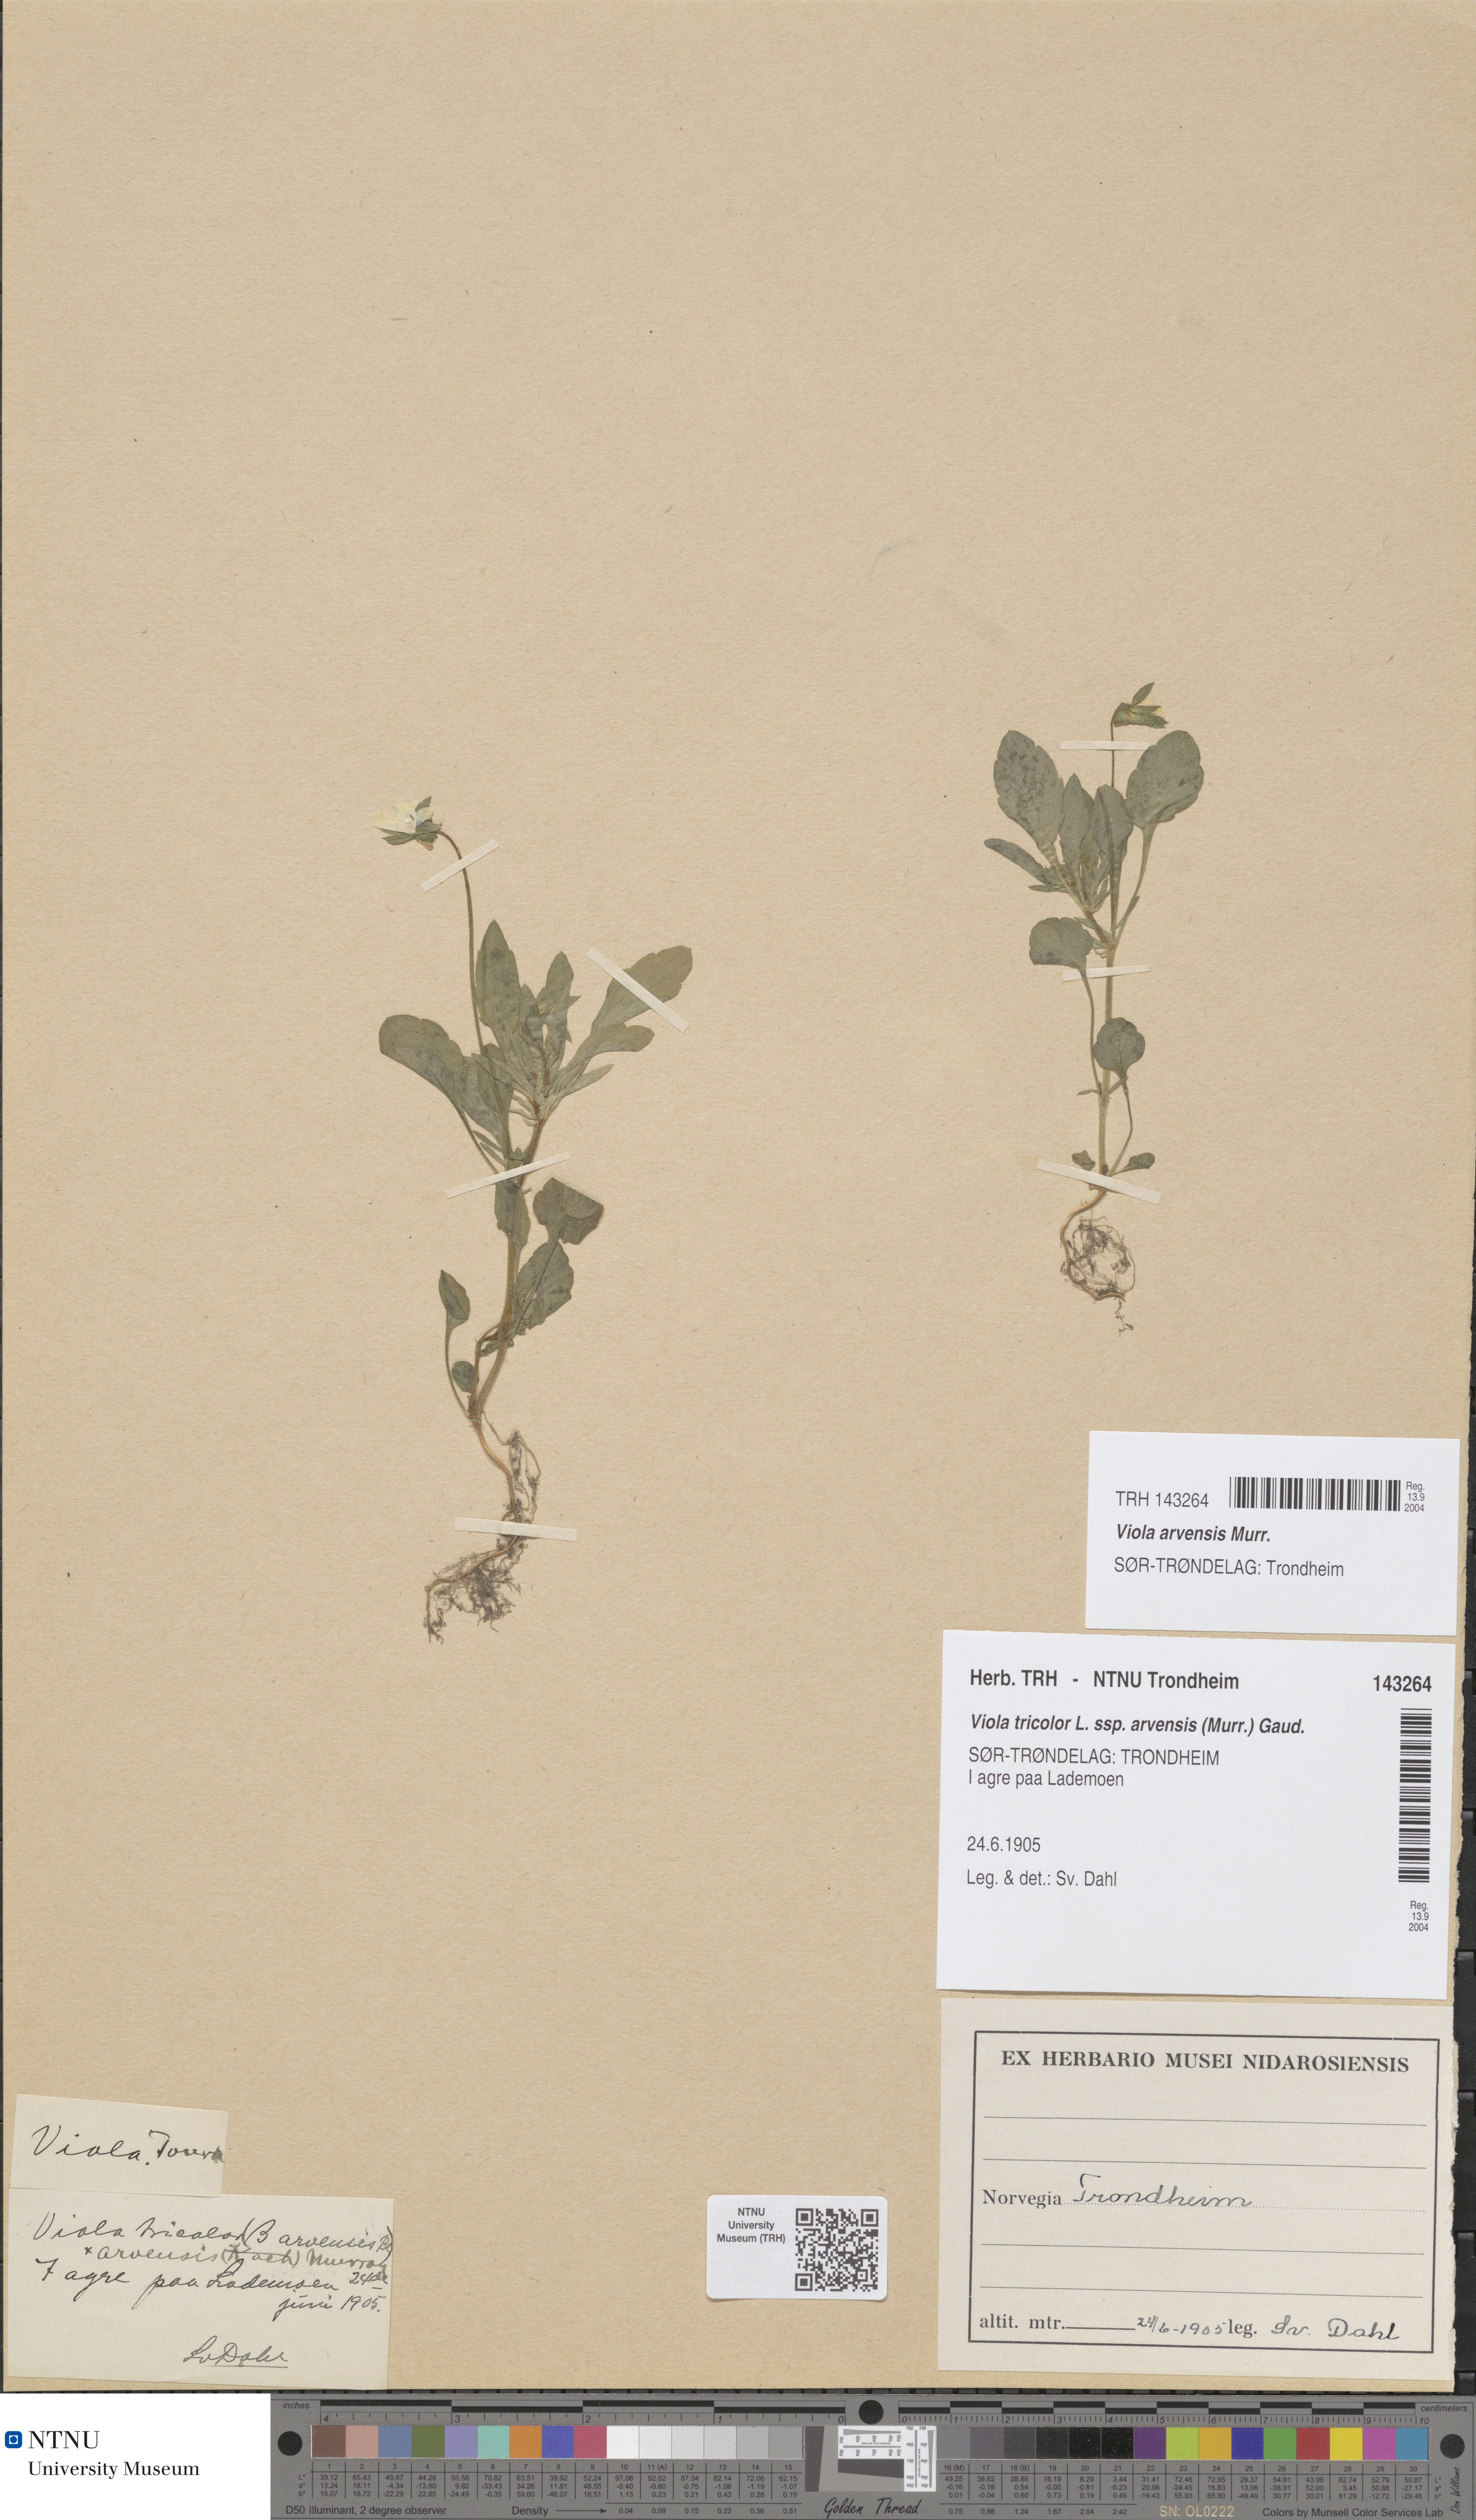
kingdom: Plantae
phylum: Tracheophyta
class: Magnoliopsida
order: Malpighiales
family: Violaceae
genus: Viola
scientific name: Viola arvensis
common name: Field pansy
